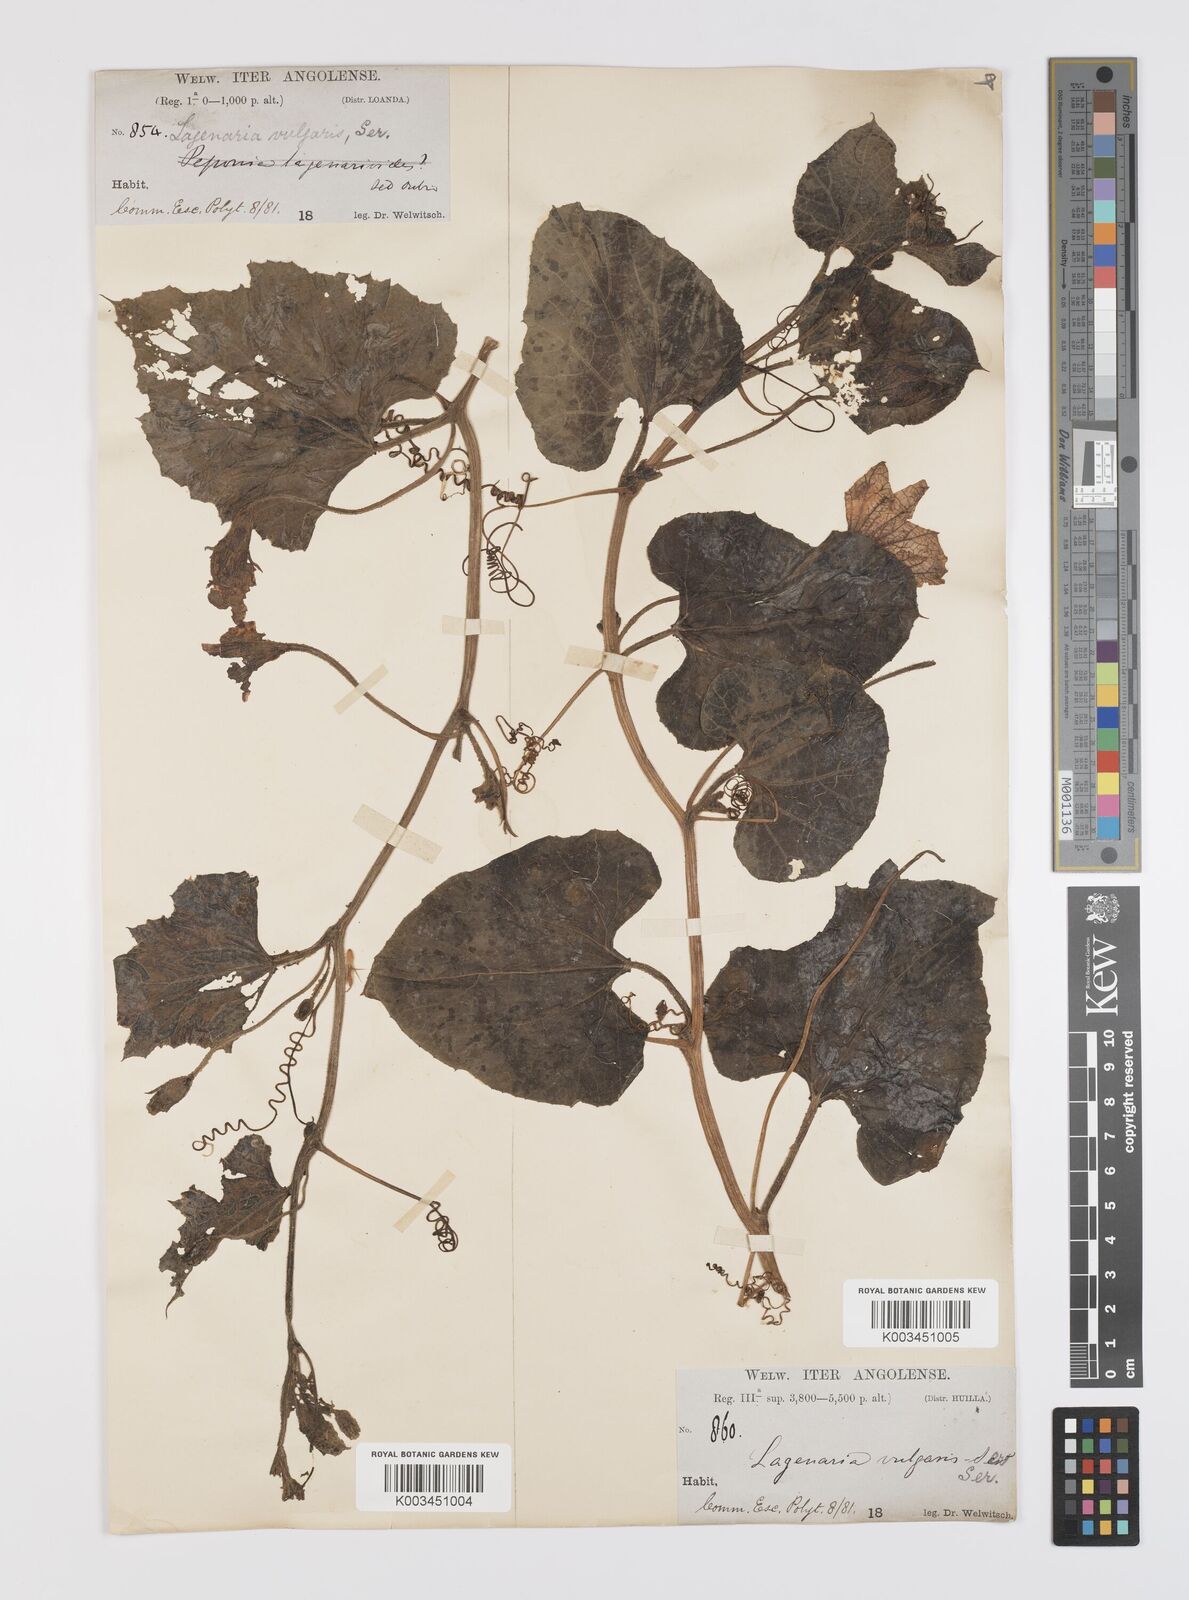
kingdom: Plantae
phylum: Tracheophyta
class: Magnoliopsida
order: Cucurbitales
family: Cucurbitaceae
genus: Lagenaria
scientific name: Lagenaria siceraria
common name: Bottle gourd
